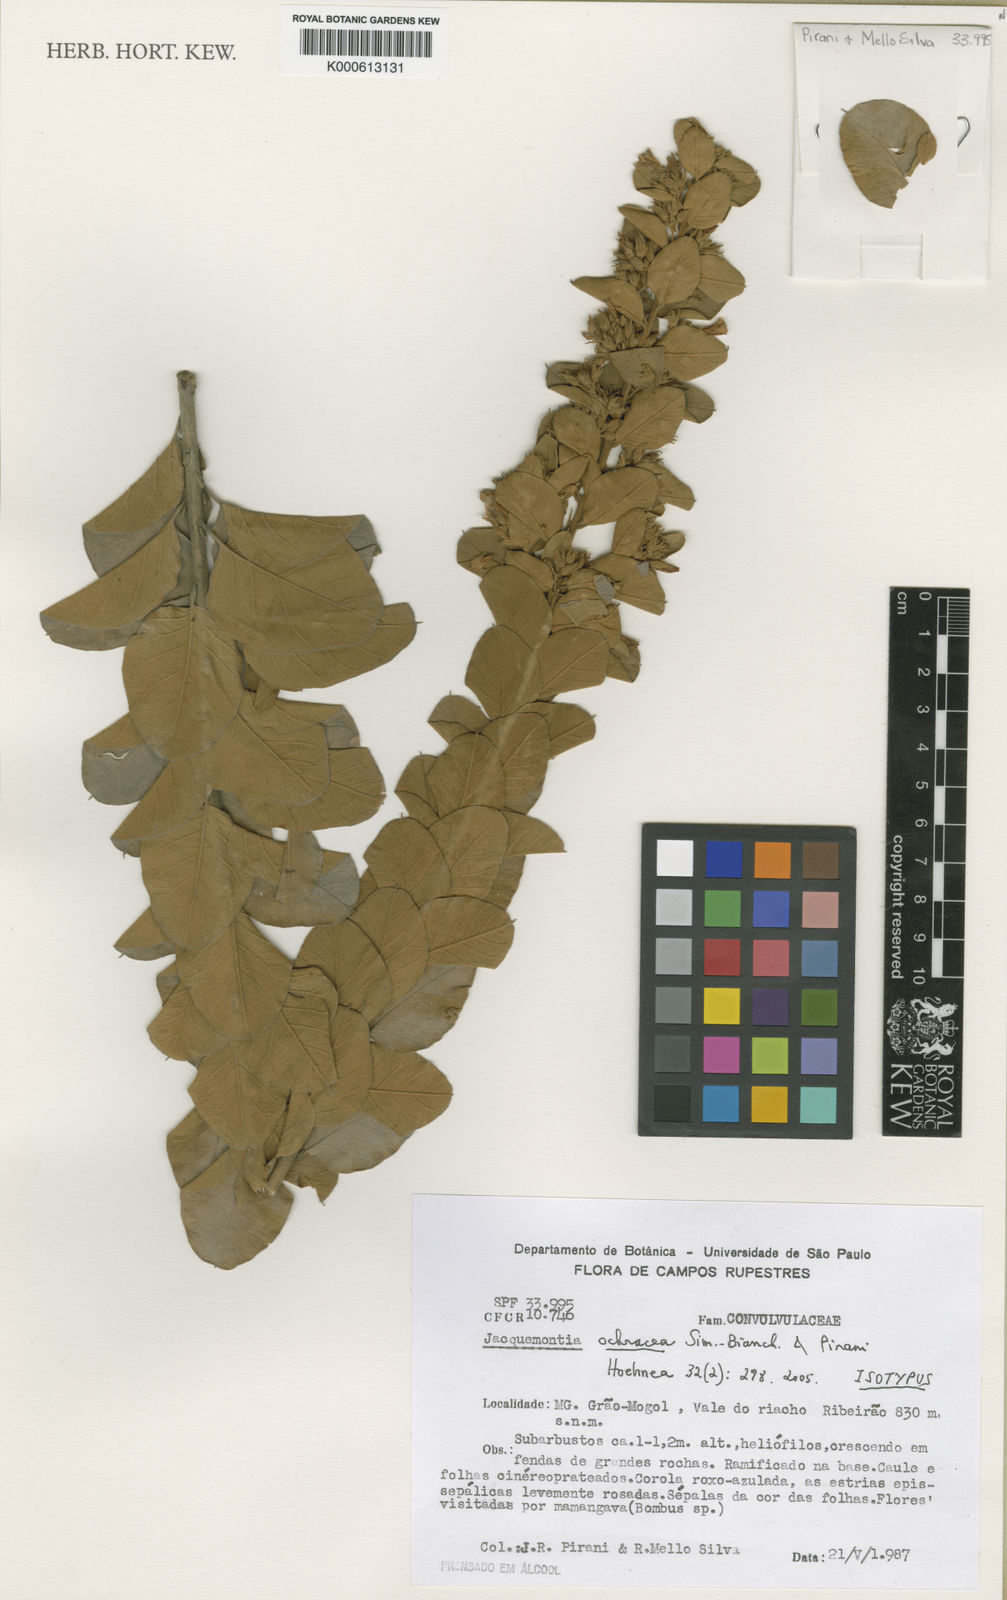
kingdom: Plantae
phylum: Tracheophyta
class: Magnoliopsida
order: Solanales
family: Convolvulaceae
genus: Jacquemontia
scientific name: Jacquemontia ochracea
